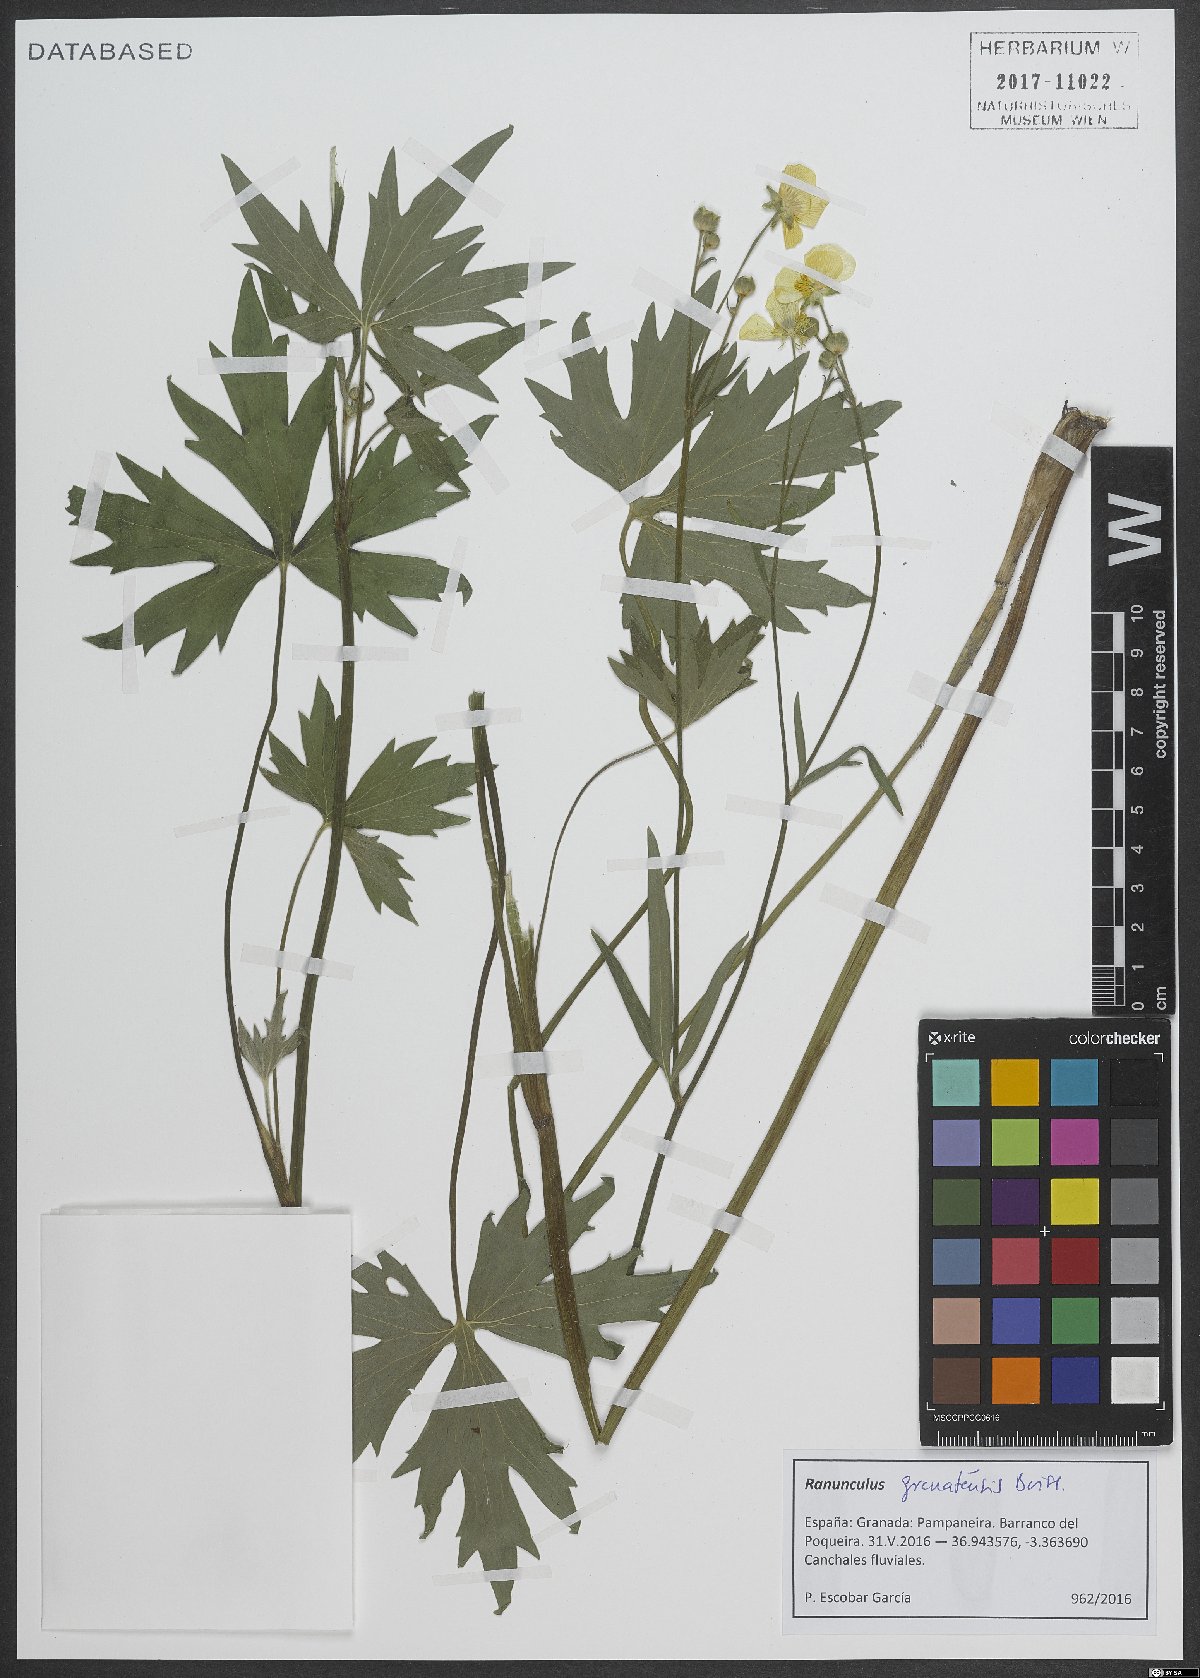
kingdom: Plantae
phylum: Tracheophyta
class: Magnoliopsida
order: Ranunculales
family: Ranunculaceae
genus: Ranunculus
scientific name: Ranunculus granatensis
